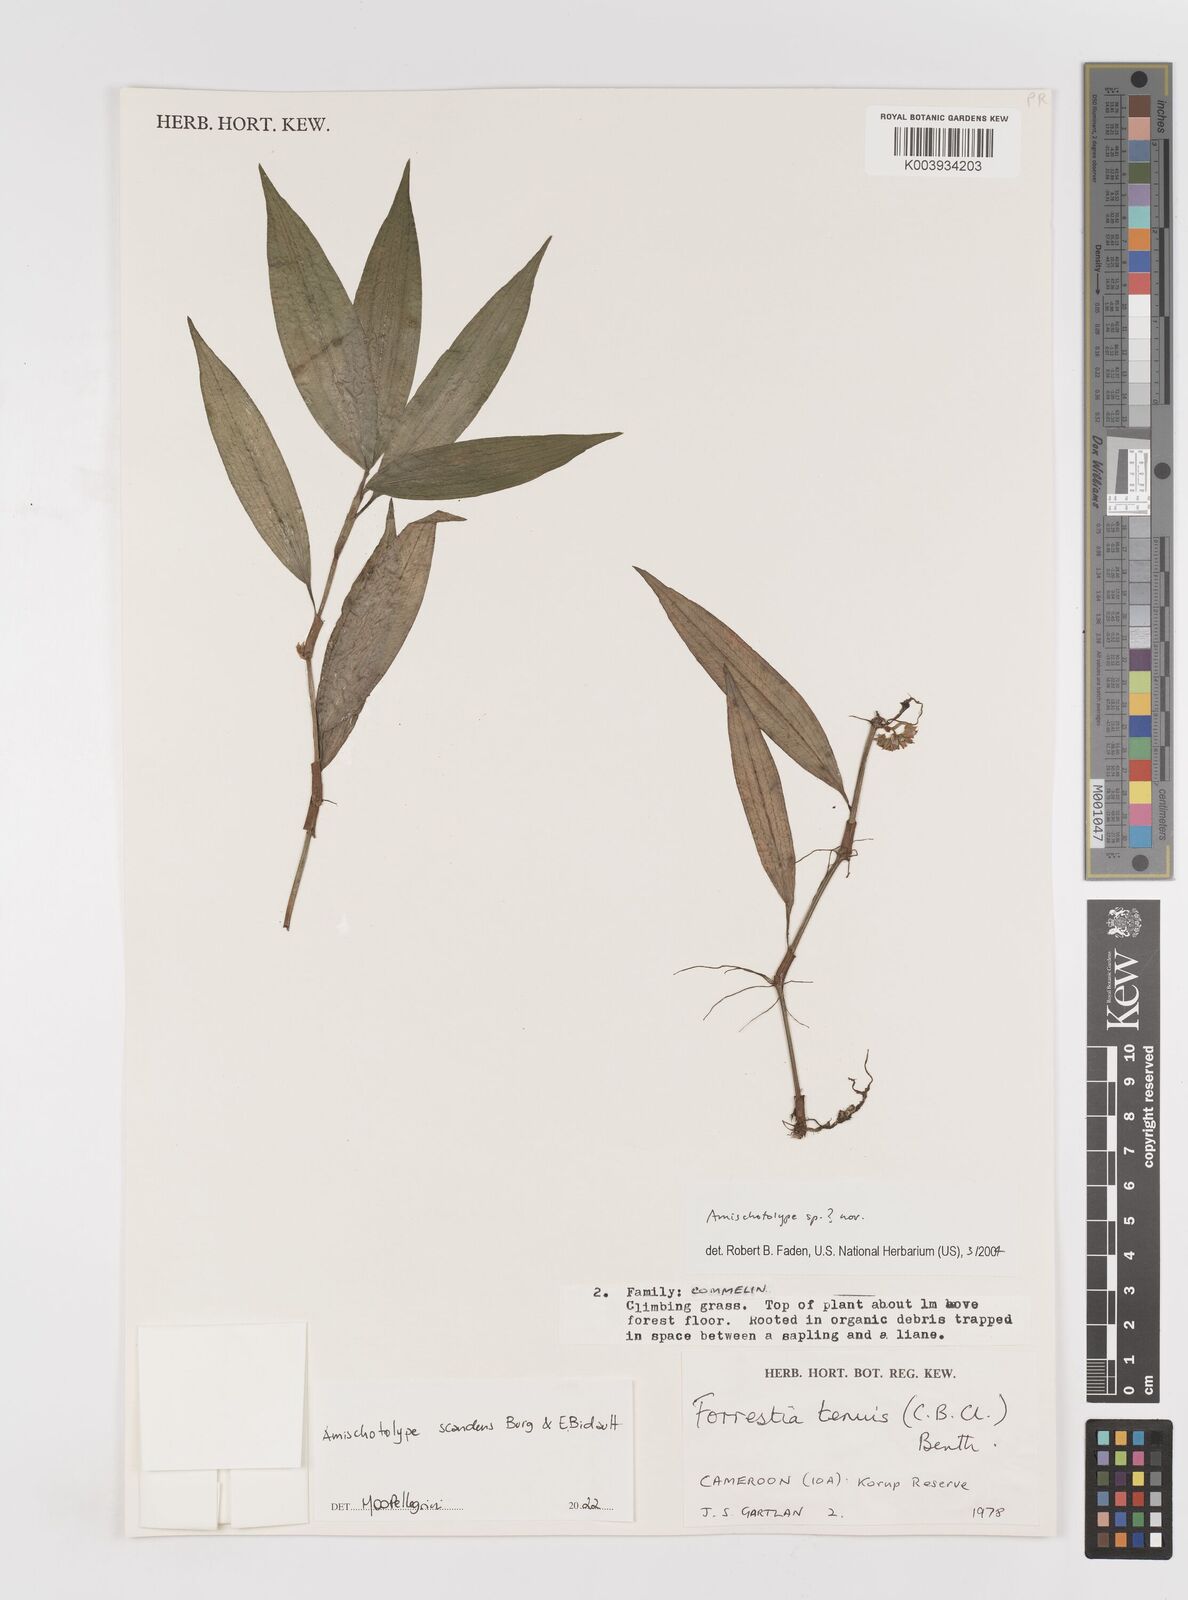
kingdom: Plantae
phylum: Tracheophyta
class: Liliopsida
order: Commelinales
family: Commelinaceae
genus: Amischotolype
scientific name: Amischotolype
